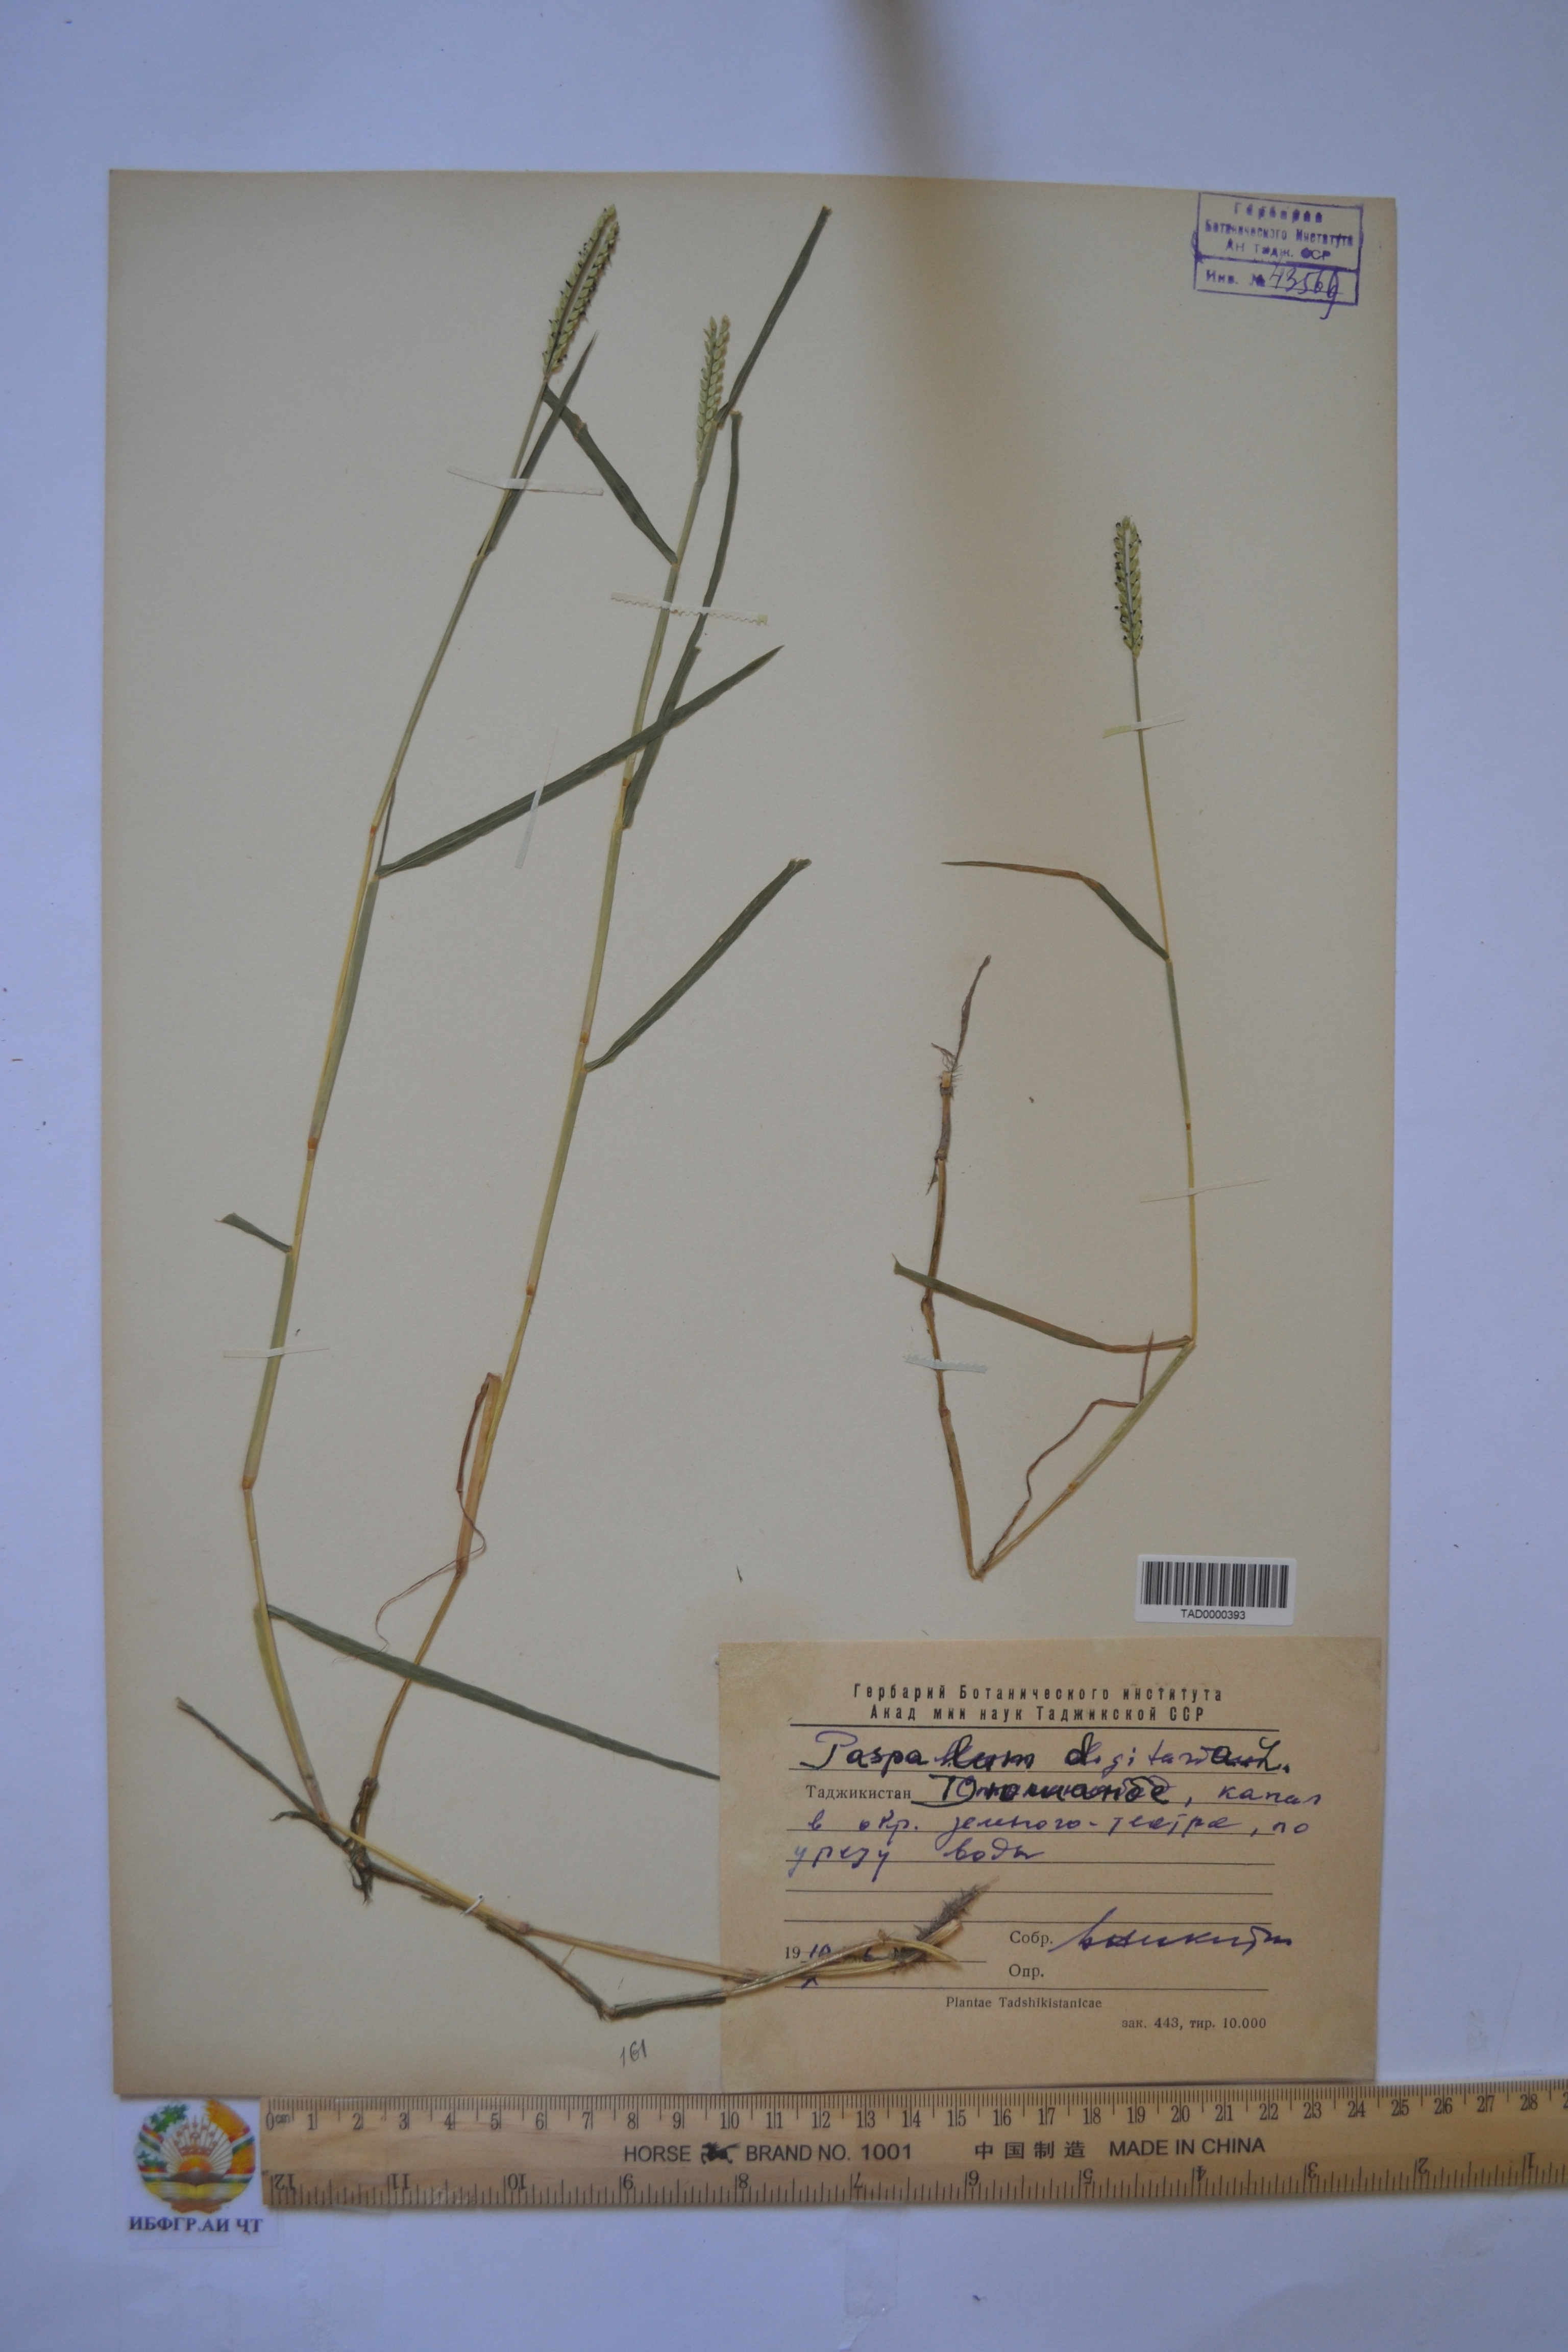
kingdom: Plantae
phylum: Tracheophyta
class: Liliopsida
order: Poales
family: Poaceae
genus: Paspalum
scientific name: Paspalum distichum
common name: Knotgrass
